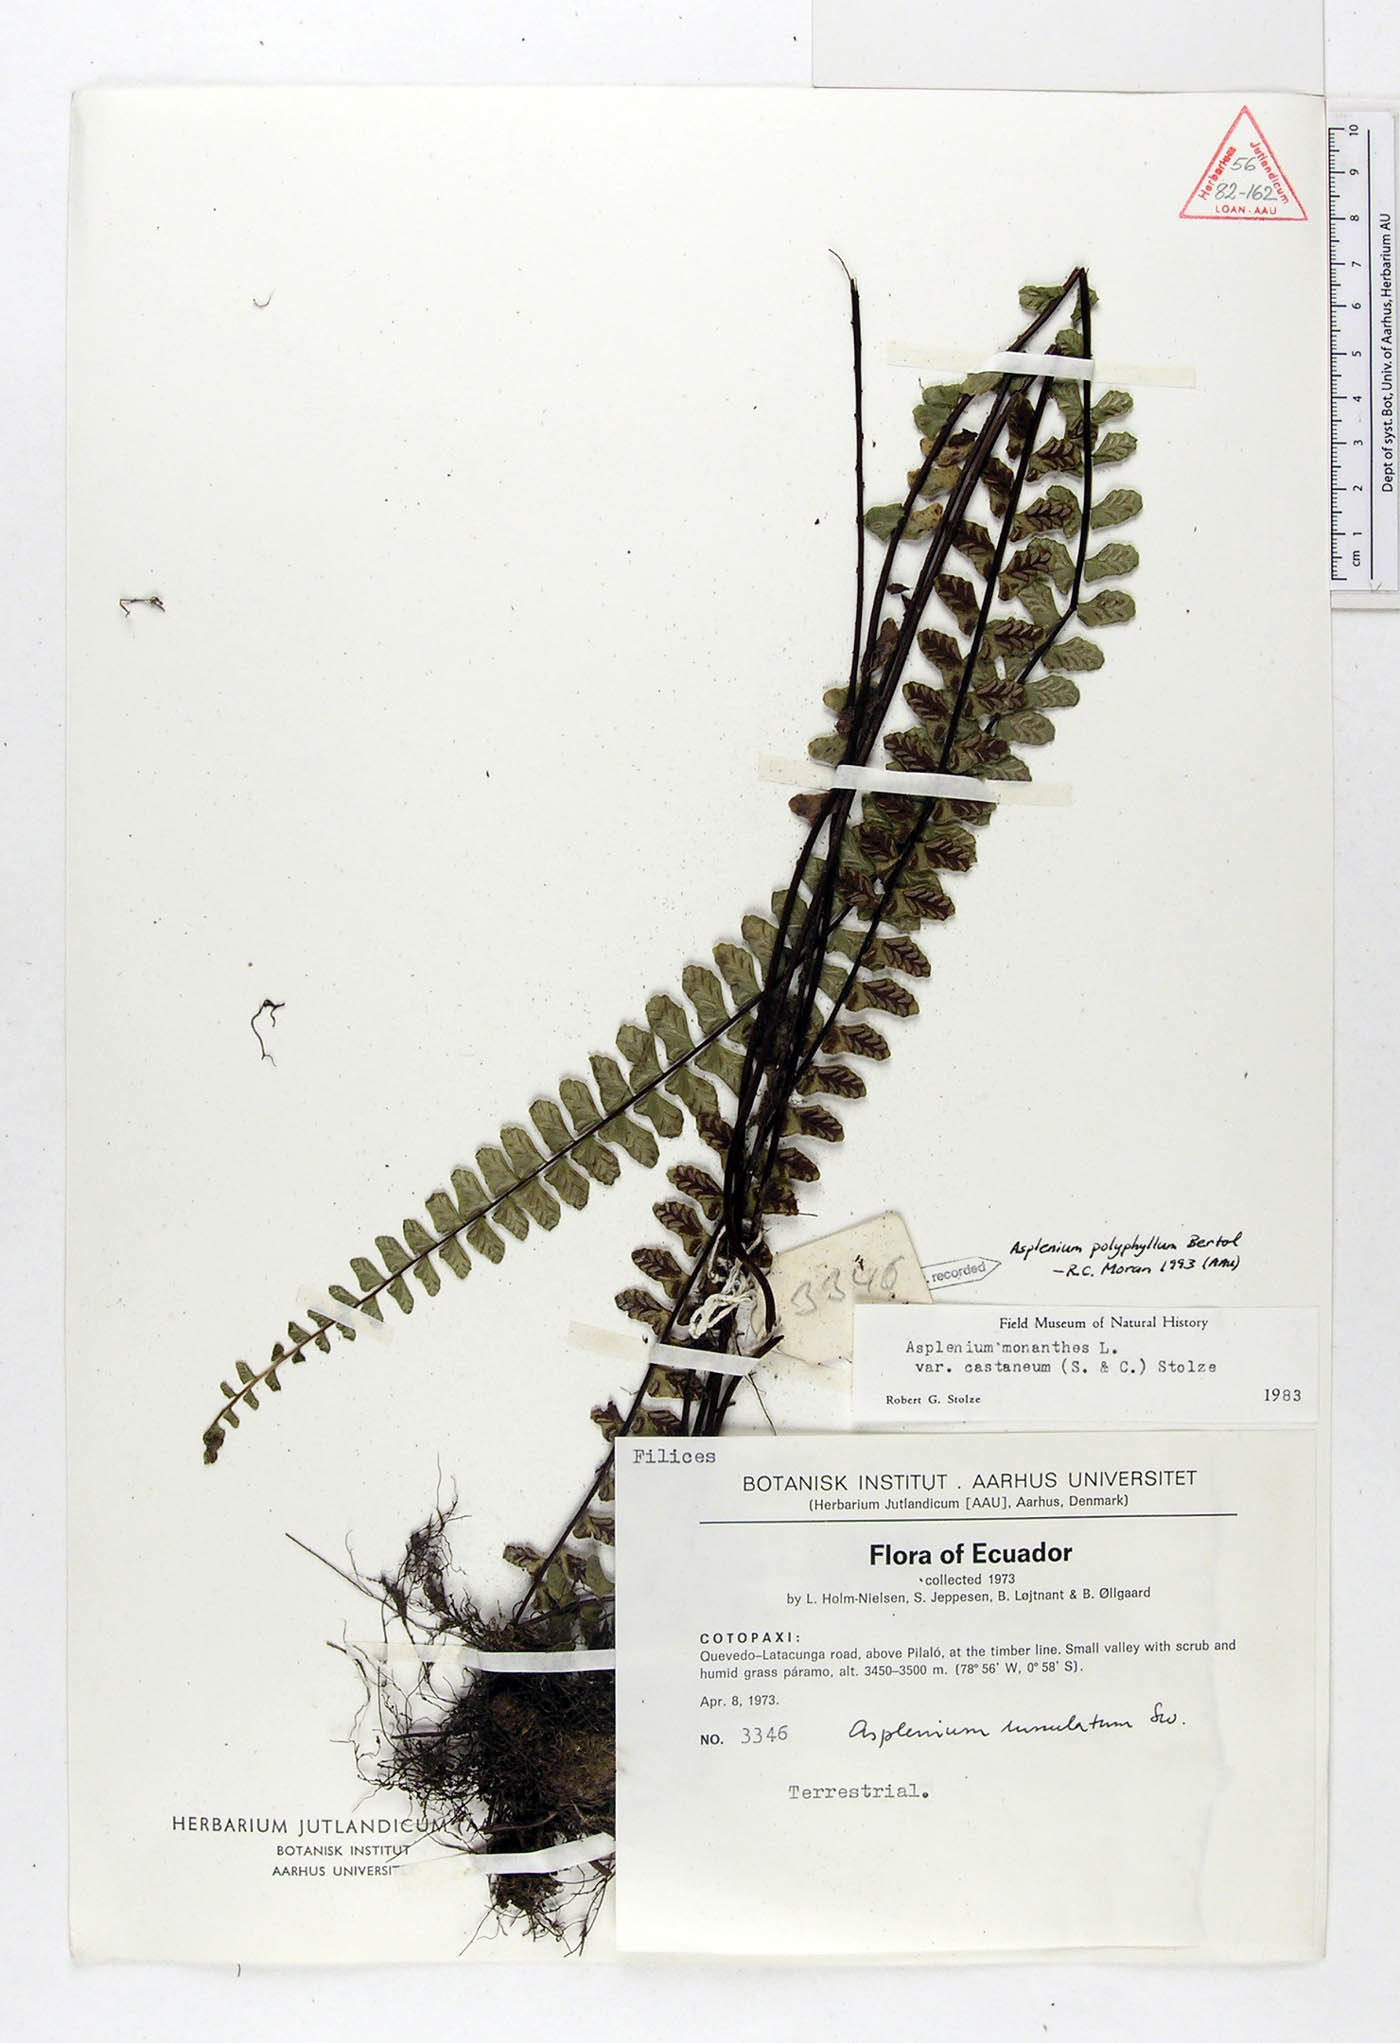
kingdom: Plantae
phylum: Tracheophyta
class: Polypodiopsida
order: Polypodiales
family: Aspleniaceae
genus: Asplenium
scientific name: Asplenium polyphyllum
